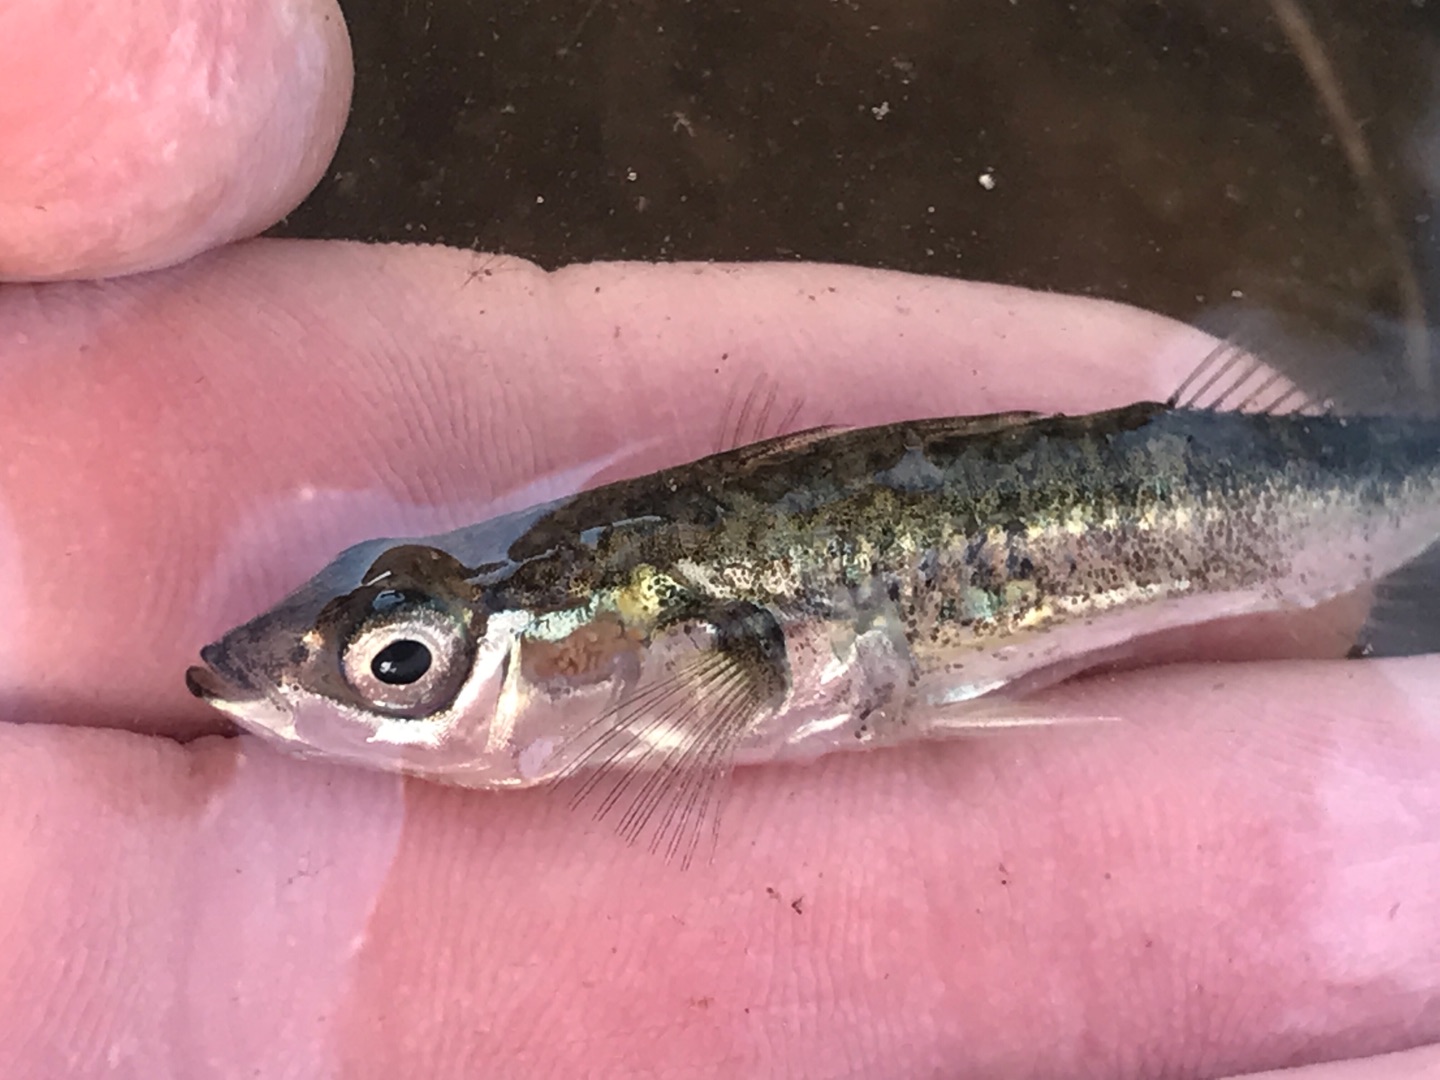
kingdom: Animalia
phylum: Chordata
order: Gasterosteiformes
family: Gasterosteidae
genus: Gasterosteus
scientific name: Gasterosteus aculeatus
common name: Trepigget hundestejle
